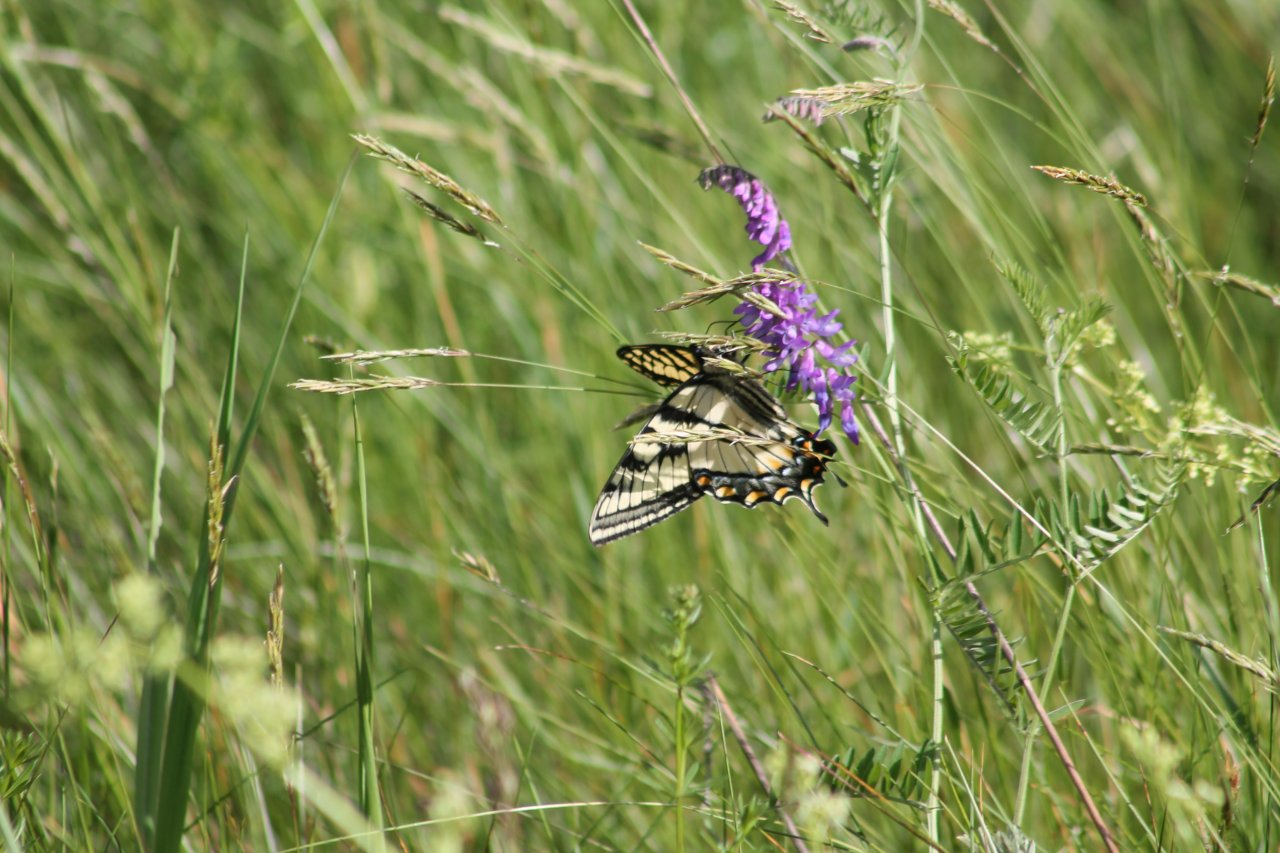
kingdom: Animalia
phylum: Arthropoda
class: Insecta
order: Lepidoptera
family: Papilionidae
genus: Pterourus
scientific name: Pterourus
